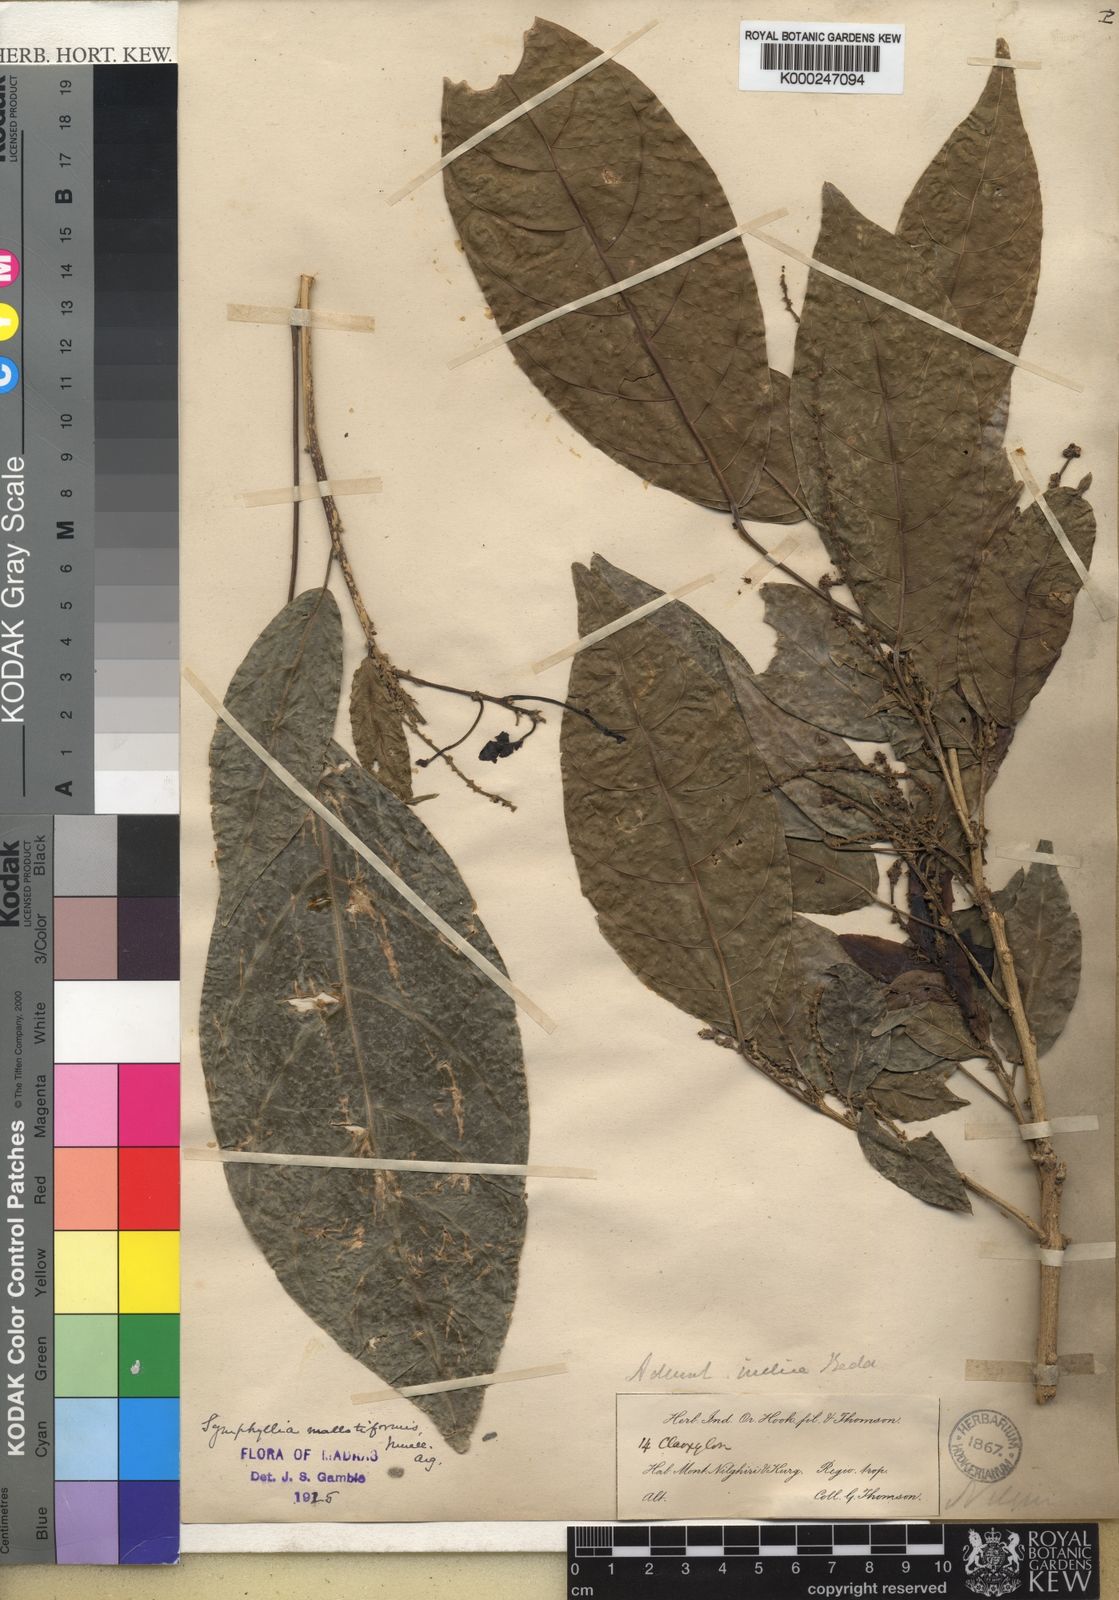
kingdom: Plantae
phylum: Tracheophyta
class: Magnoliopsida
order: Malpighiales
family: Euphorbiaceae
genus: Epiprinus
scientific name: Epiprinus
